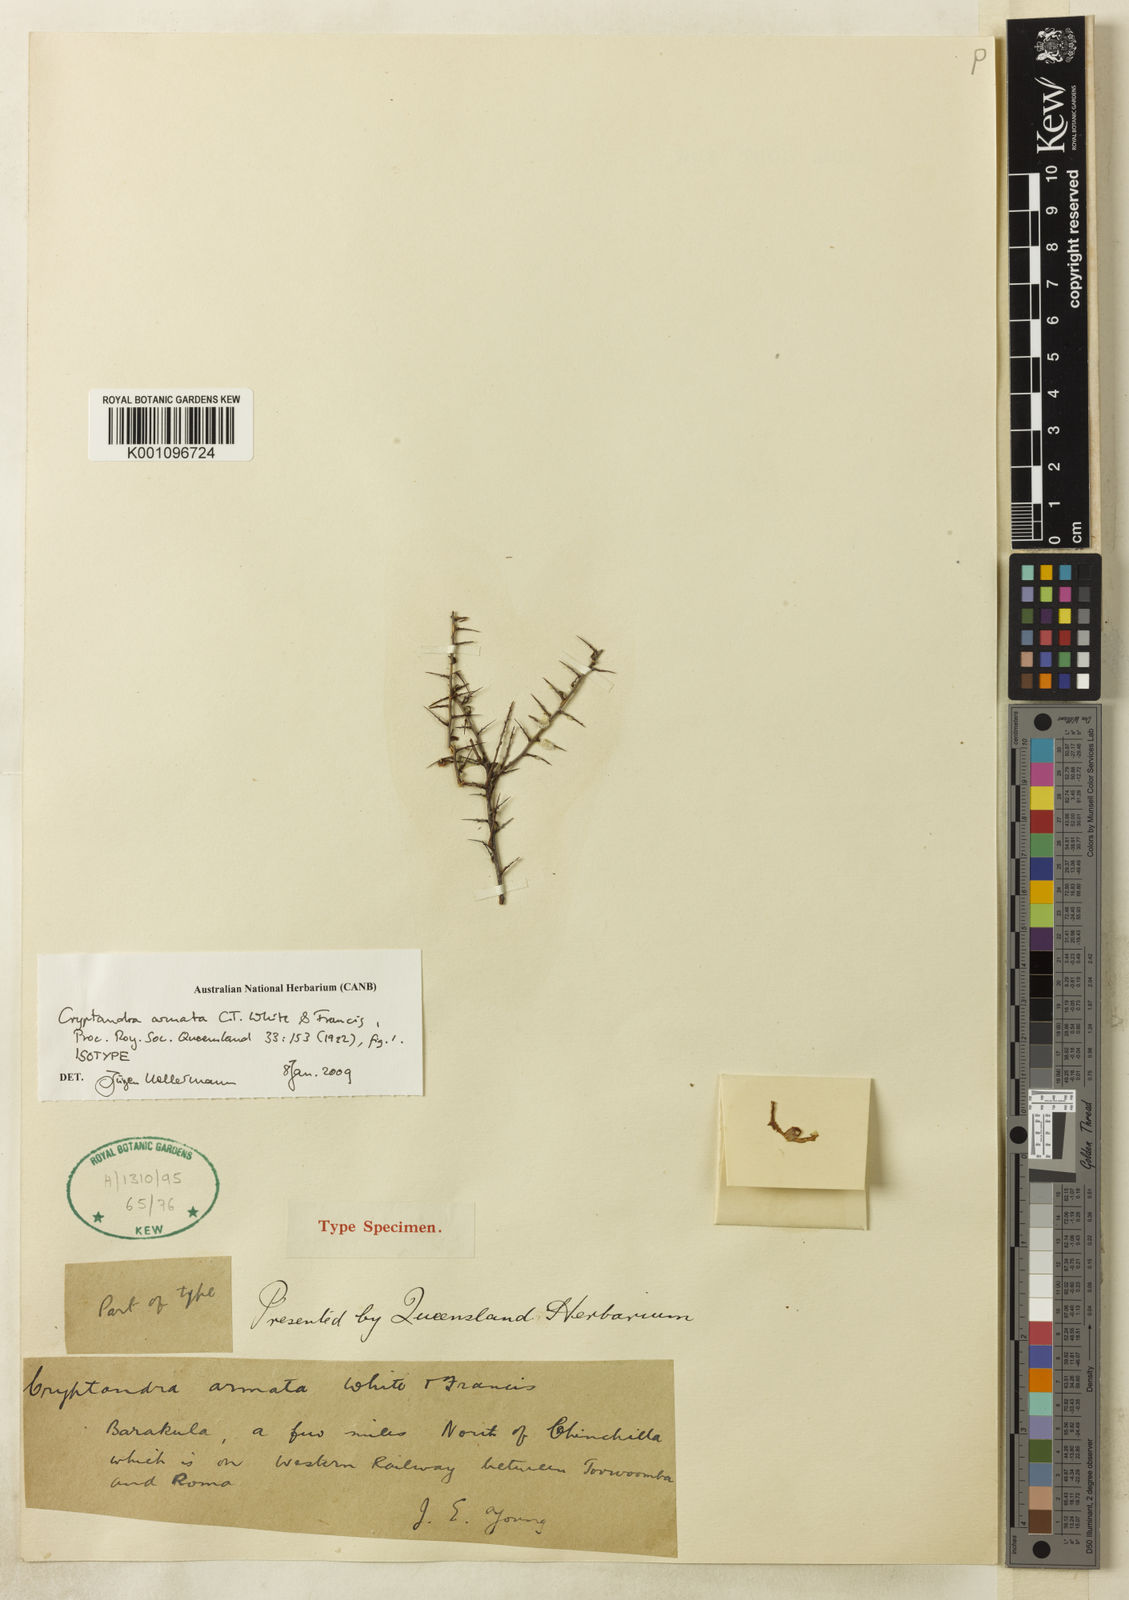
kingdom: Plantae
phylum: Tracheophyta
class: Magnoliopsida
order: Rosales
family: Rhamnaceae
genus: Cryptandra
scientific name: Cryptandra armata
